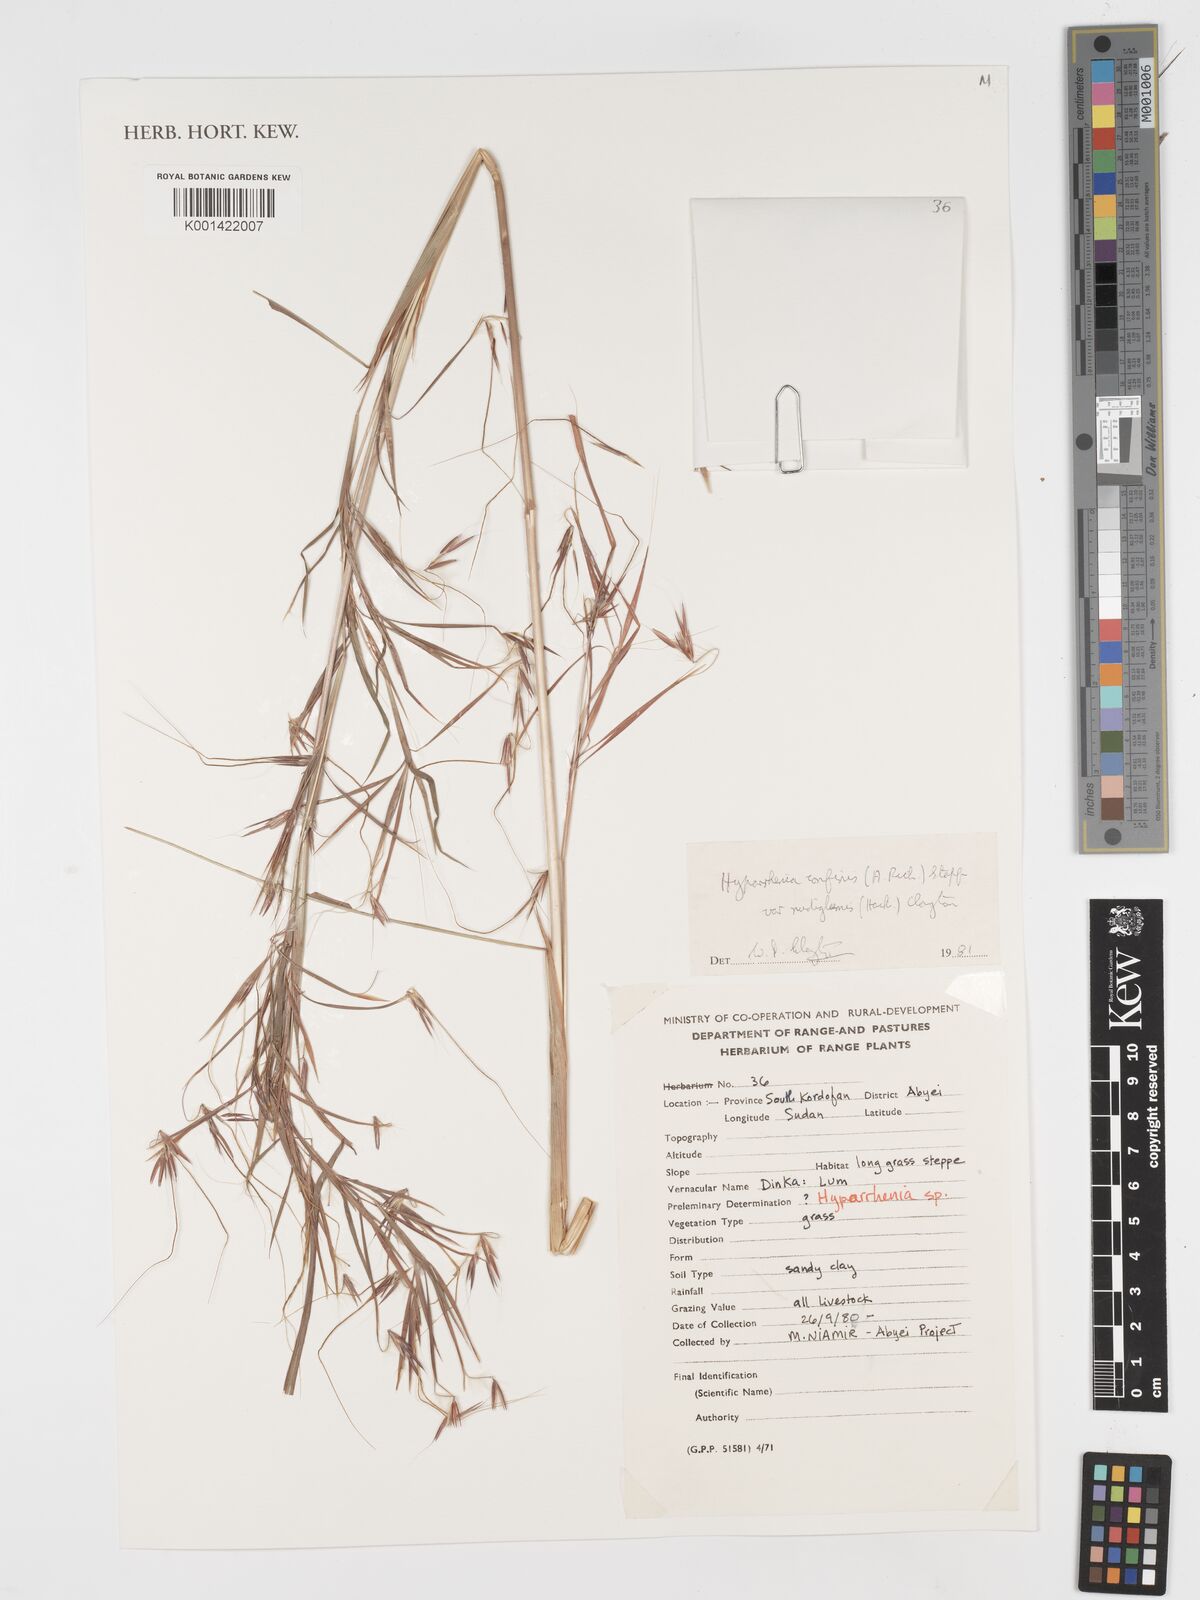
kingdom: Plantae
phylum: Tracheophyta
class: Liliopsida
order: Poales
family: Poaceae
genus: Hyparrhenia
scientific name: Hyparrhenia confinis
